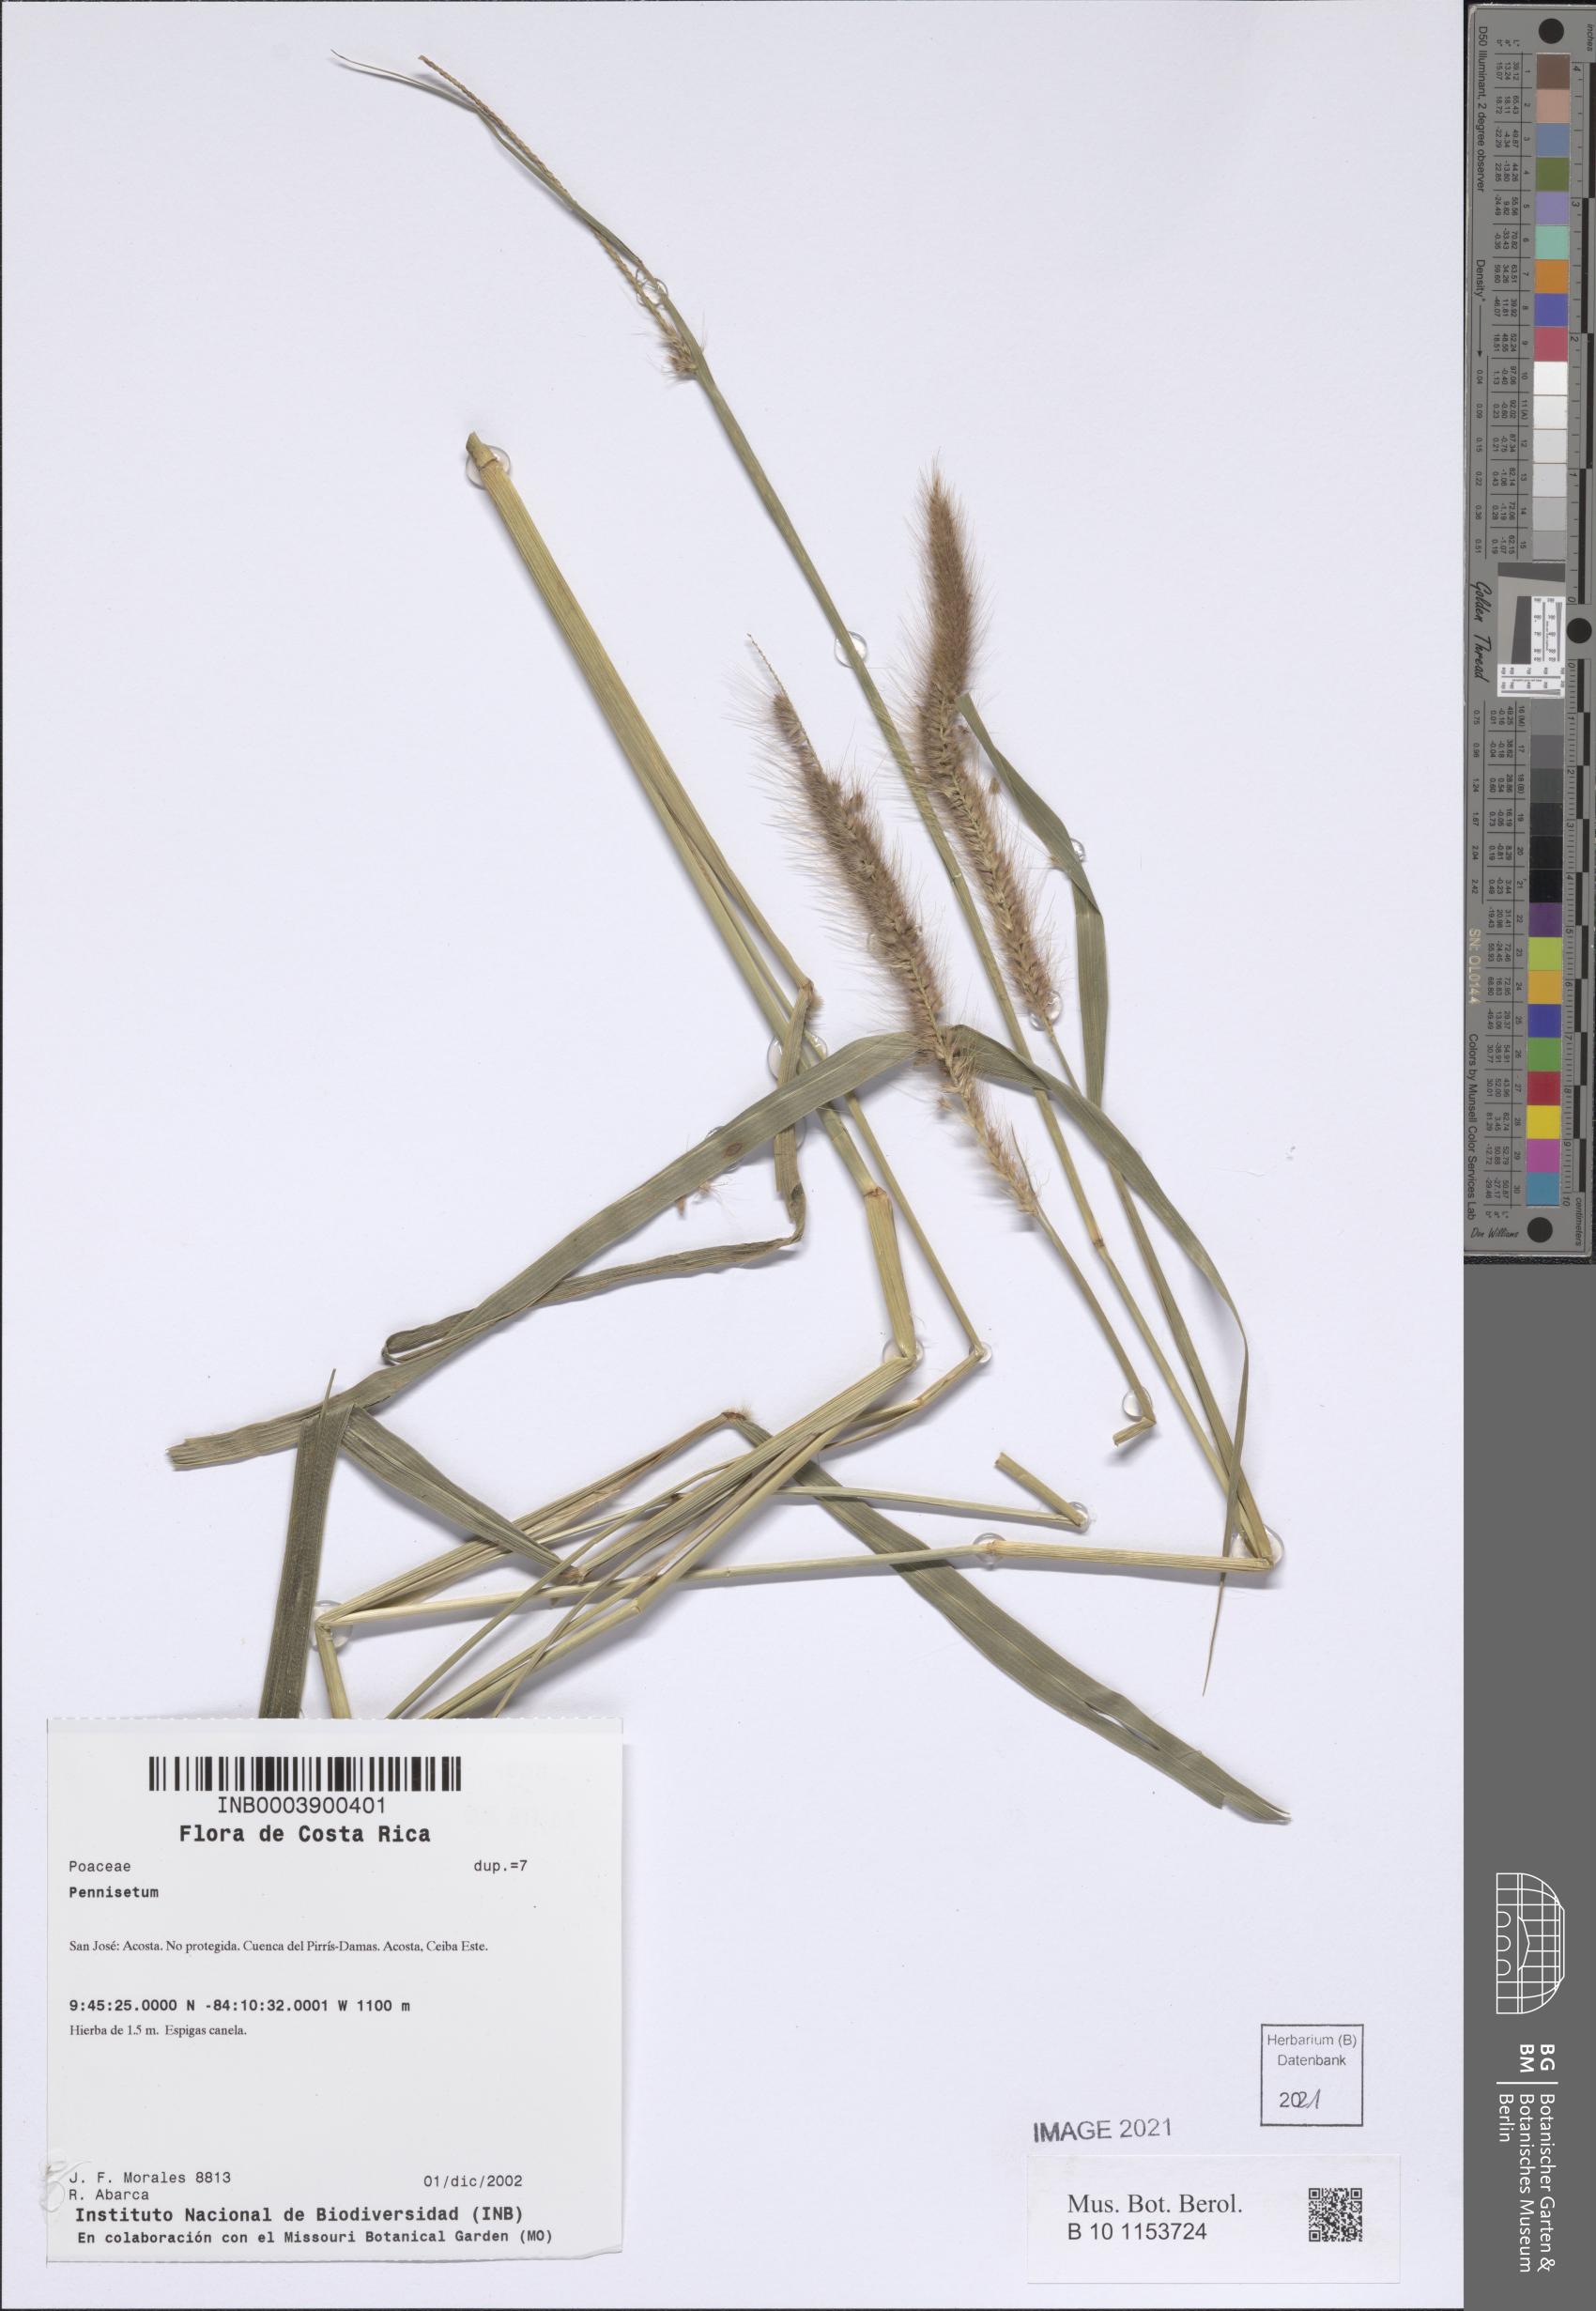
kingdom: Plantae
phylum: Tracheophyta
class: Liliopsida
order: Poales
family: Poaceae
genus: Cenchrus
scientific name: Cenchrus setosus
